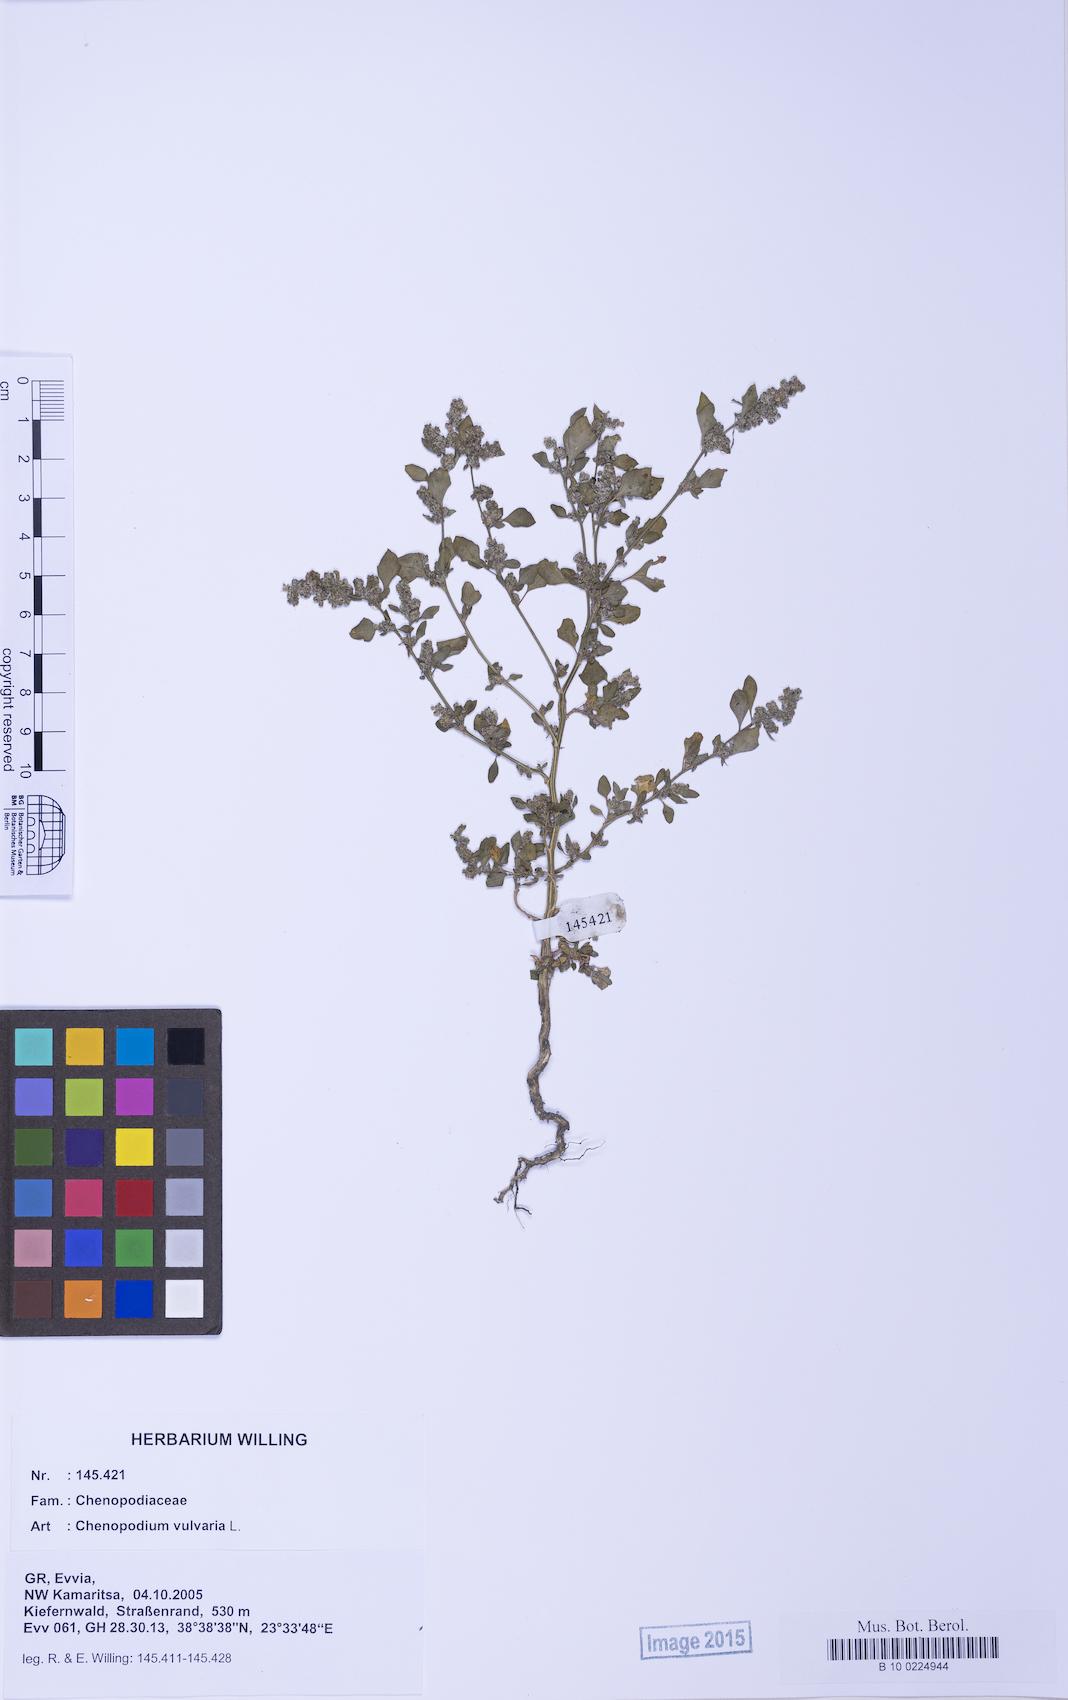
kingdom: Plantae
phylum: Tracheophyta
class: Magnoliopsida
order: Caryophyllales
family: Amaranthaceae
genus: Chenopodium
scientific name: Chenopodium vulvaria
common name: Stinking goosefoot
